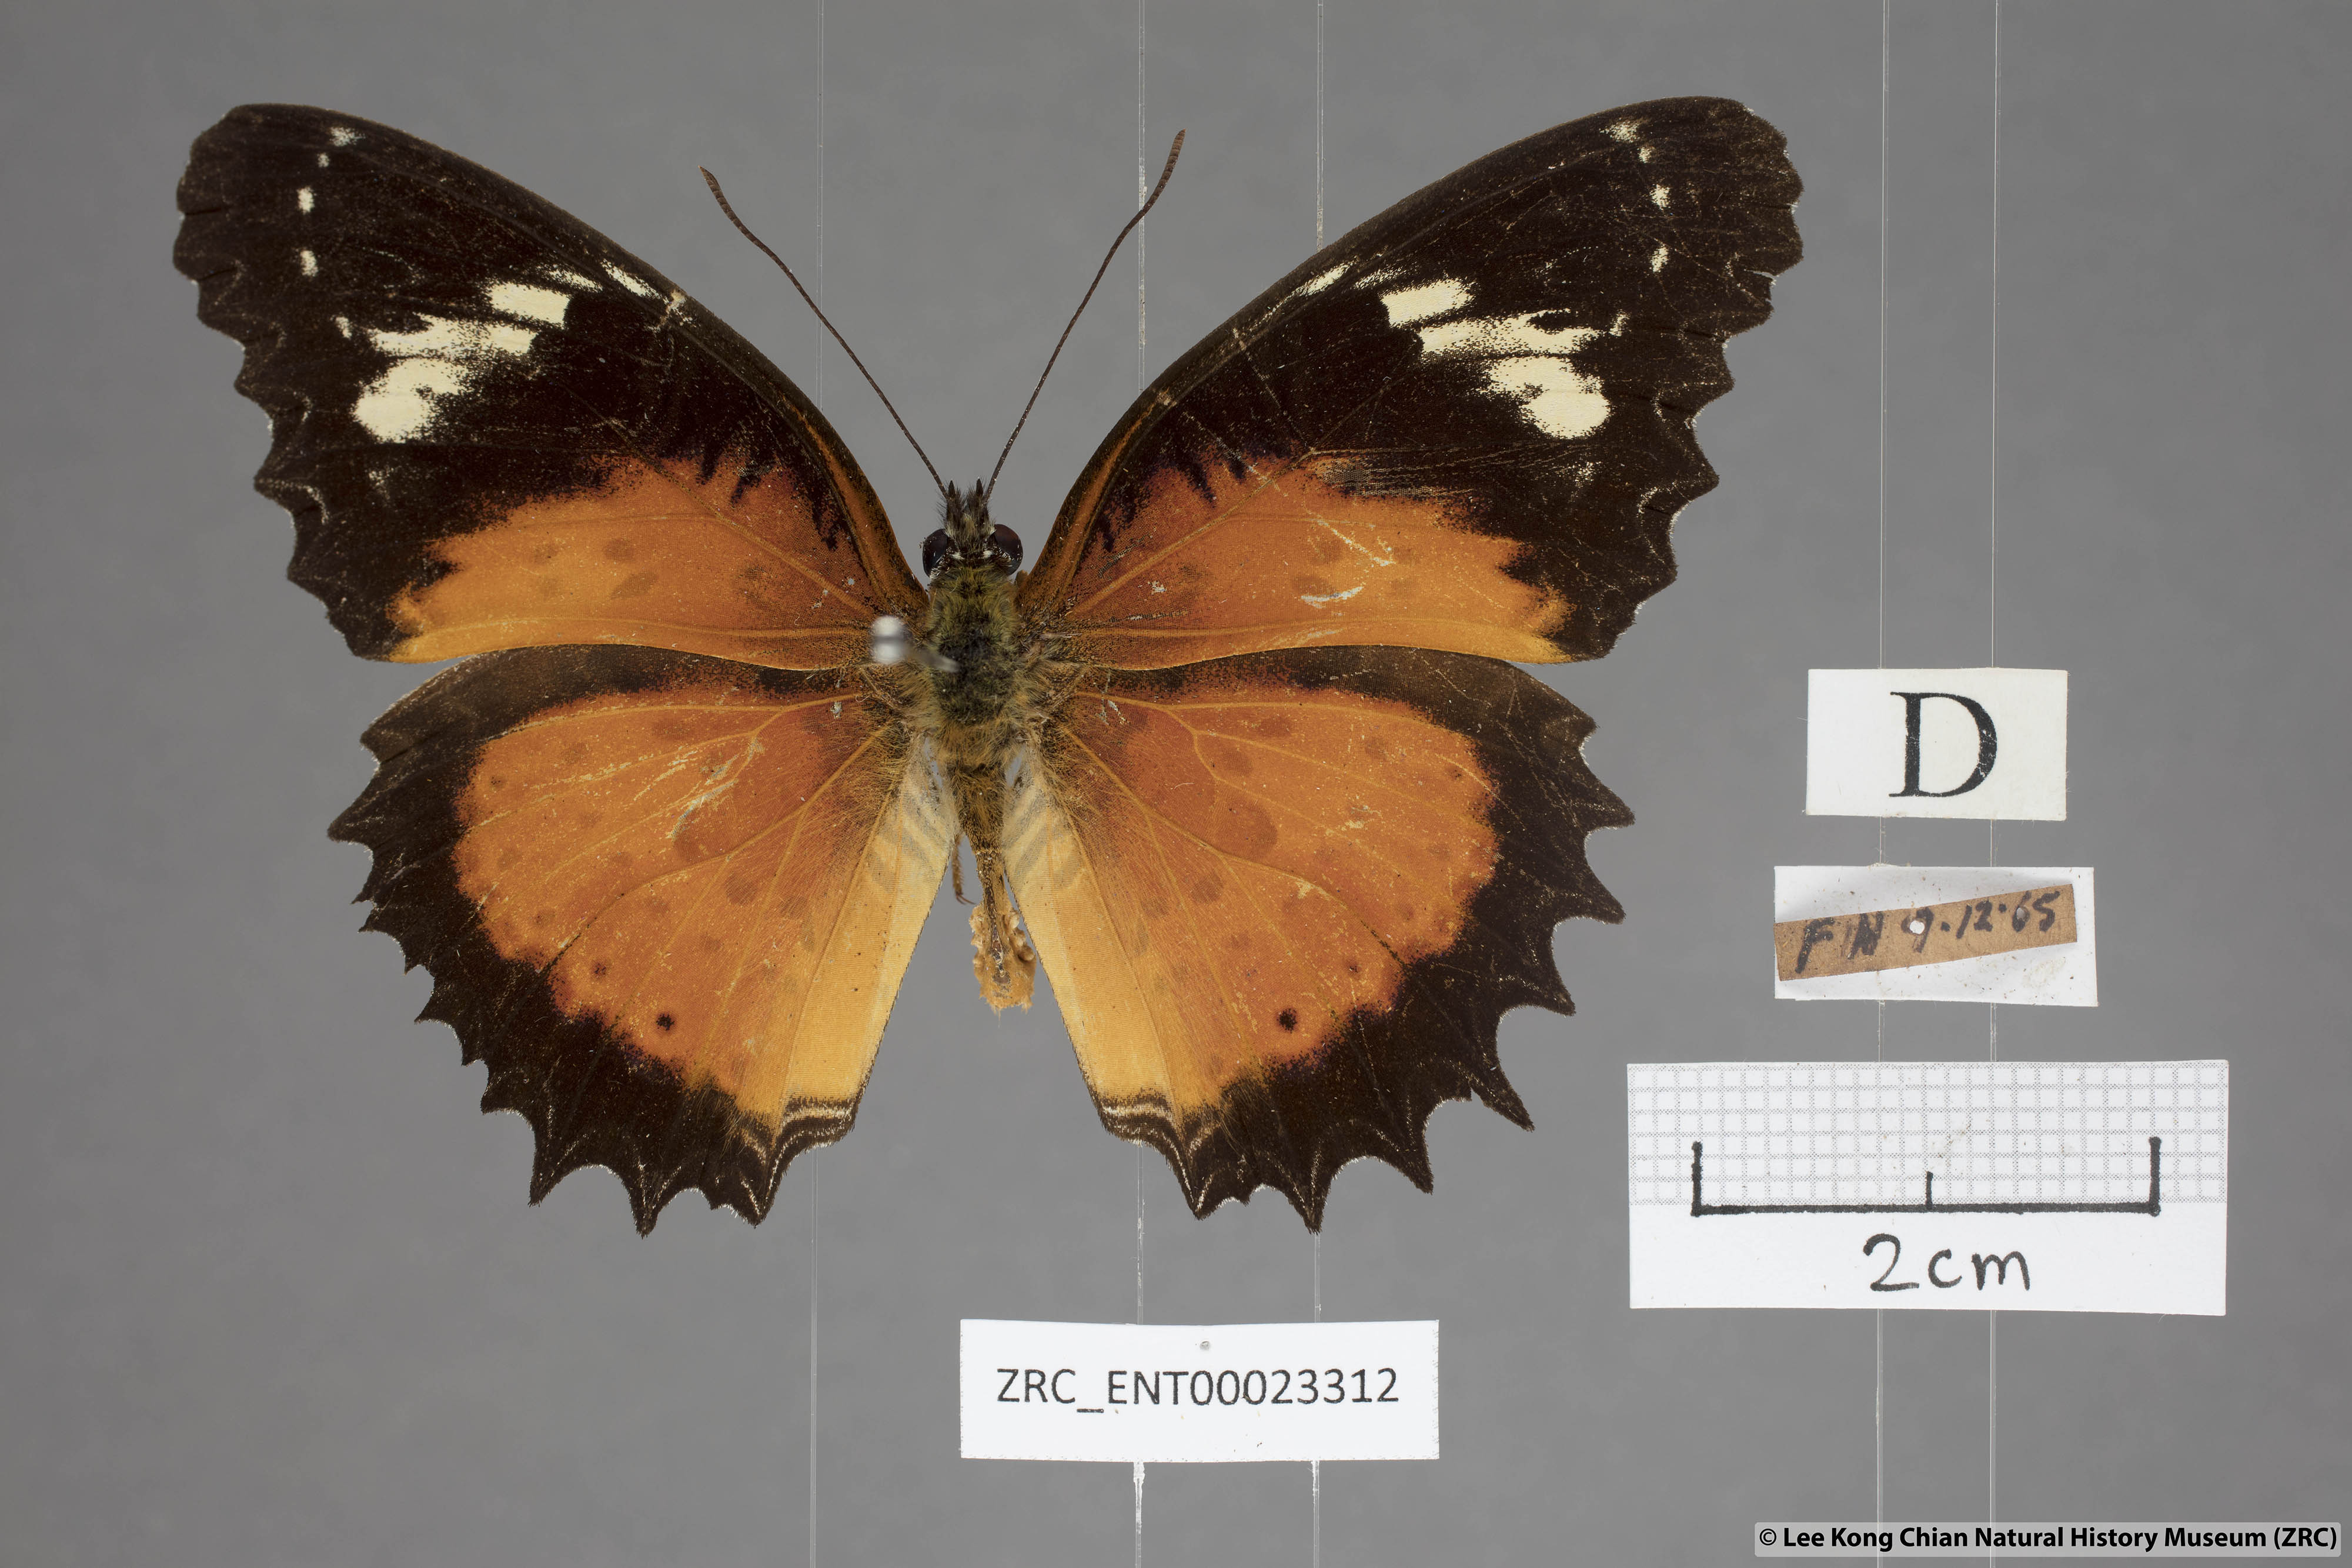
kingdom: Animalia
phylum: Arthropoda
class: Insecta
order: Lepidoptera
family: Nymphalidae
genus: Cethosia
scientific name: Cethosia penthesilea
